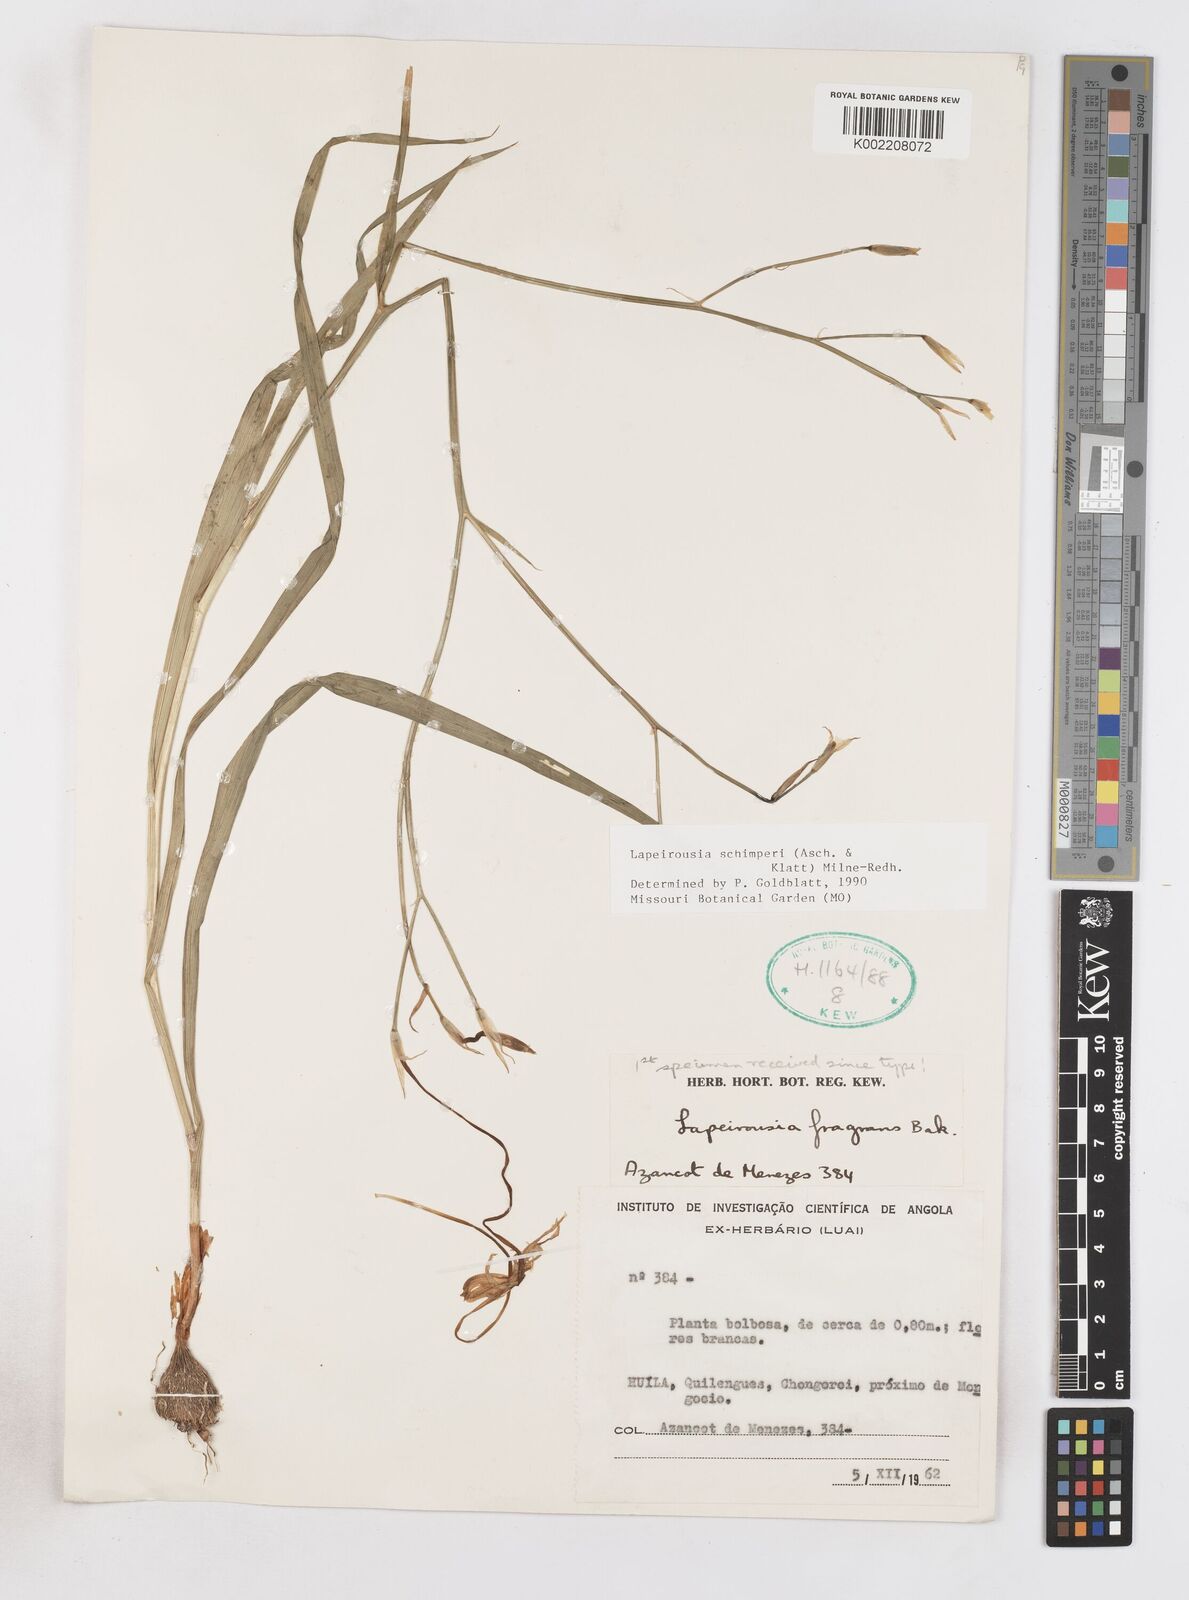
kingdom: Plantae
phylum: Tracheophyta
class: Liliopsida
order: Asparagales
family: Iridaceae
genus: Afrosolen
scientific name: Afrosolen schimperi
